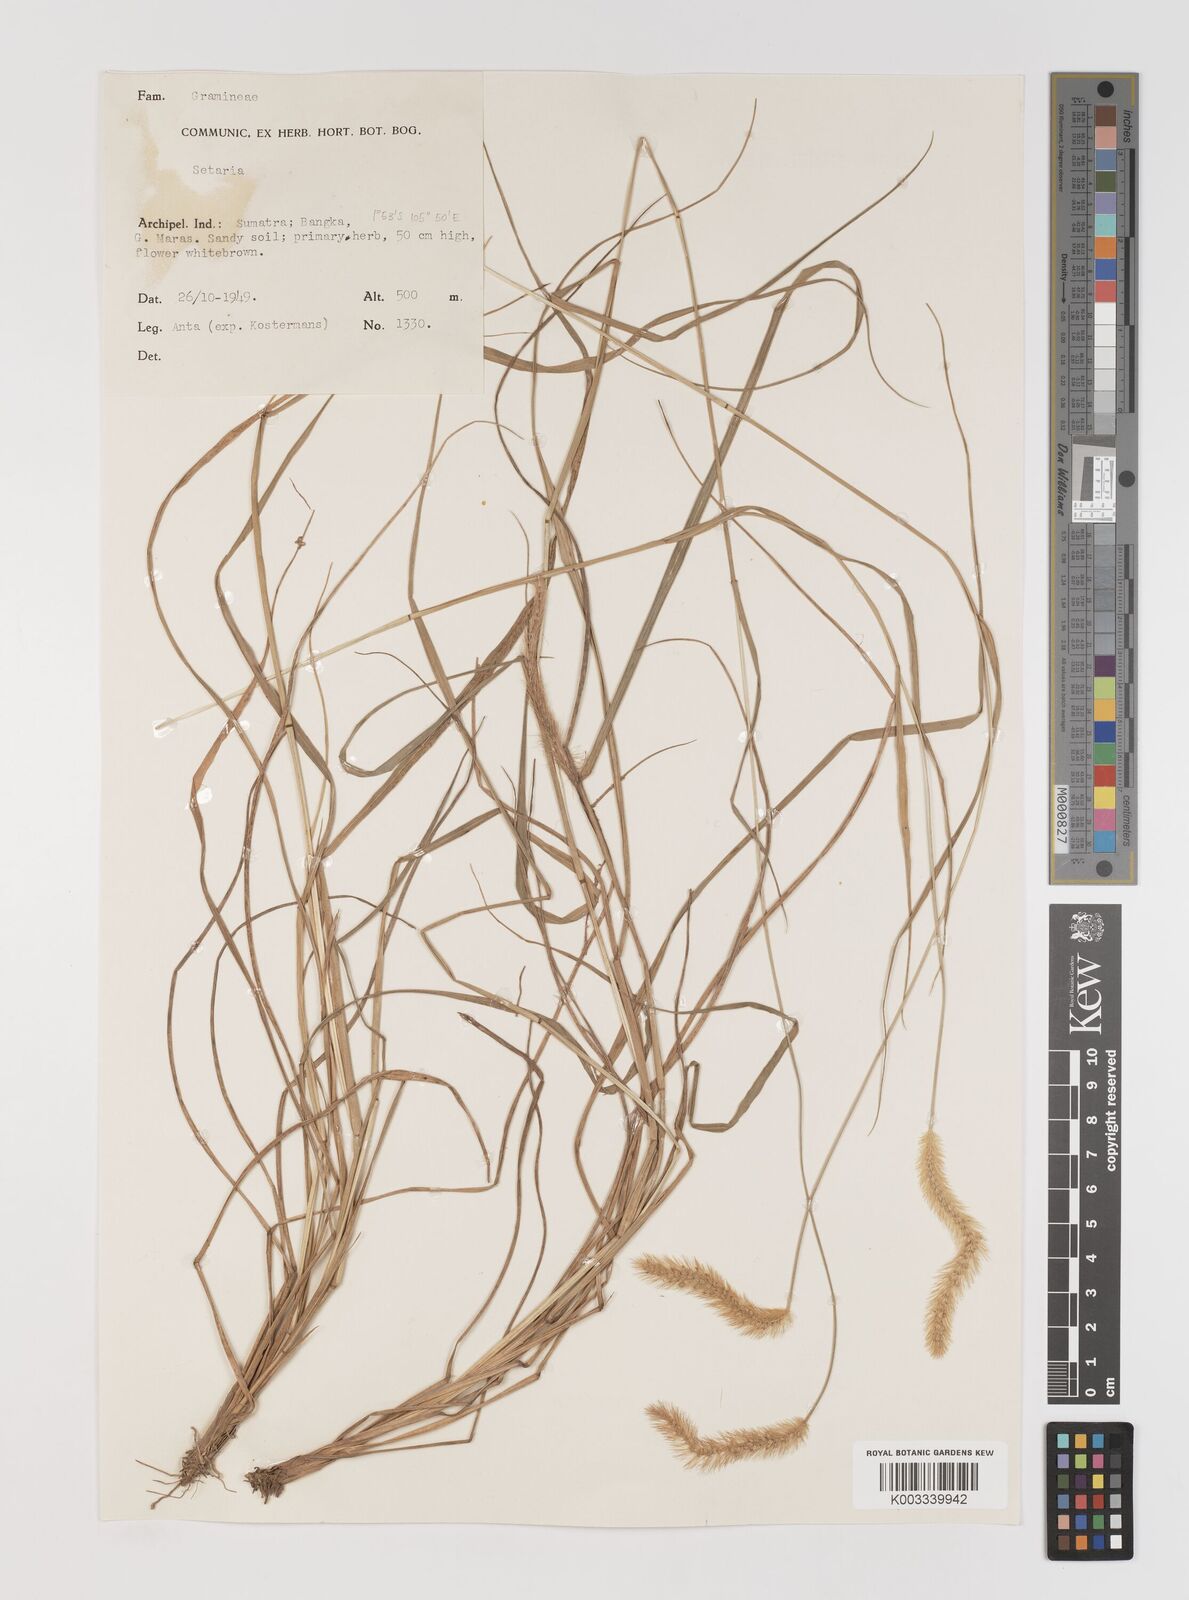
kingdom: Plantae
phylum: Tracheophyta
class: Liliopsida
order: Poales
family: Poaceae
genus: Setaria
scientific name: Setaria parviflora
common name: Knotroot bristle-grass
